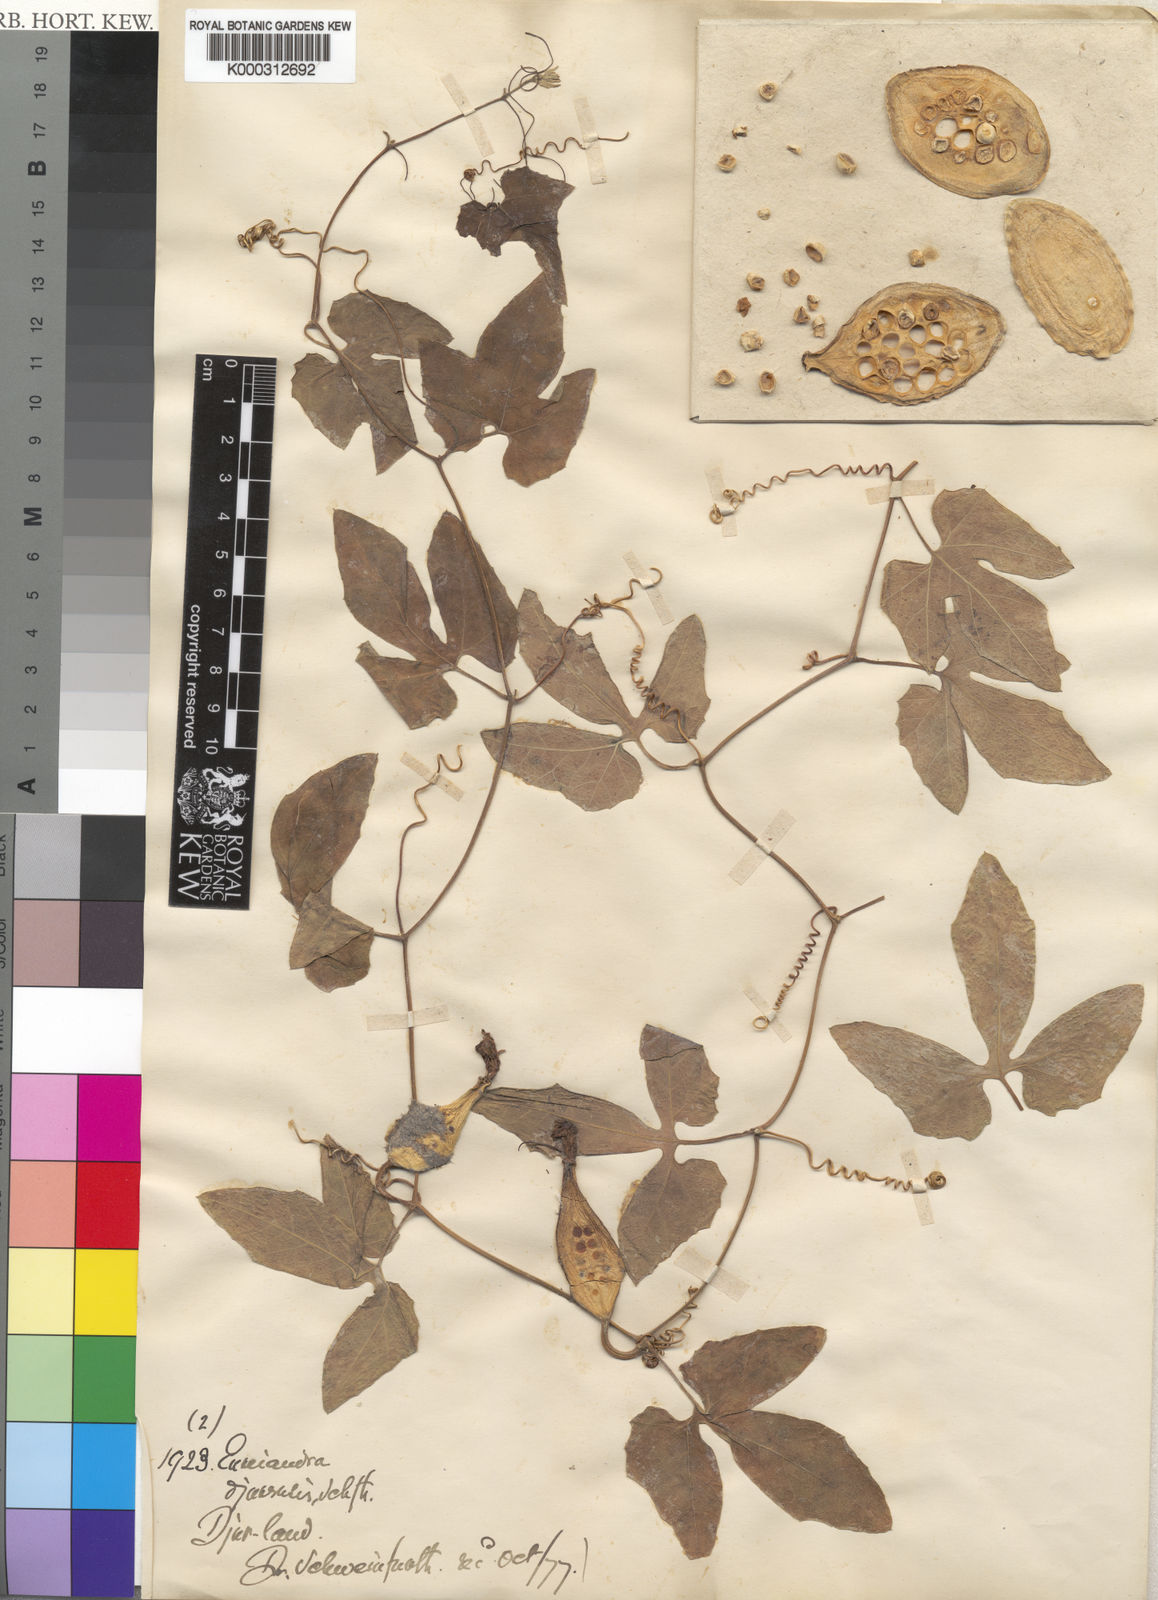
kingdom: Plantae
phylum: Tracheophyta
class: Magnoliopsida
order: Cucurbitales
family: Cucurbitaceae
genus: Eureiandra
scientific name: Eureiandra formosa
